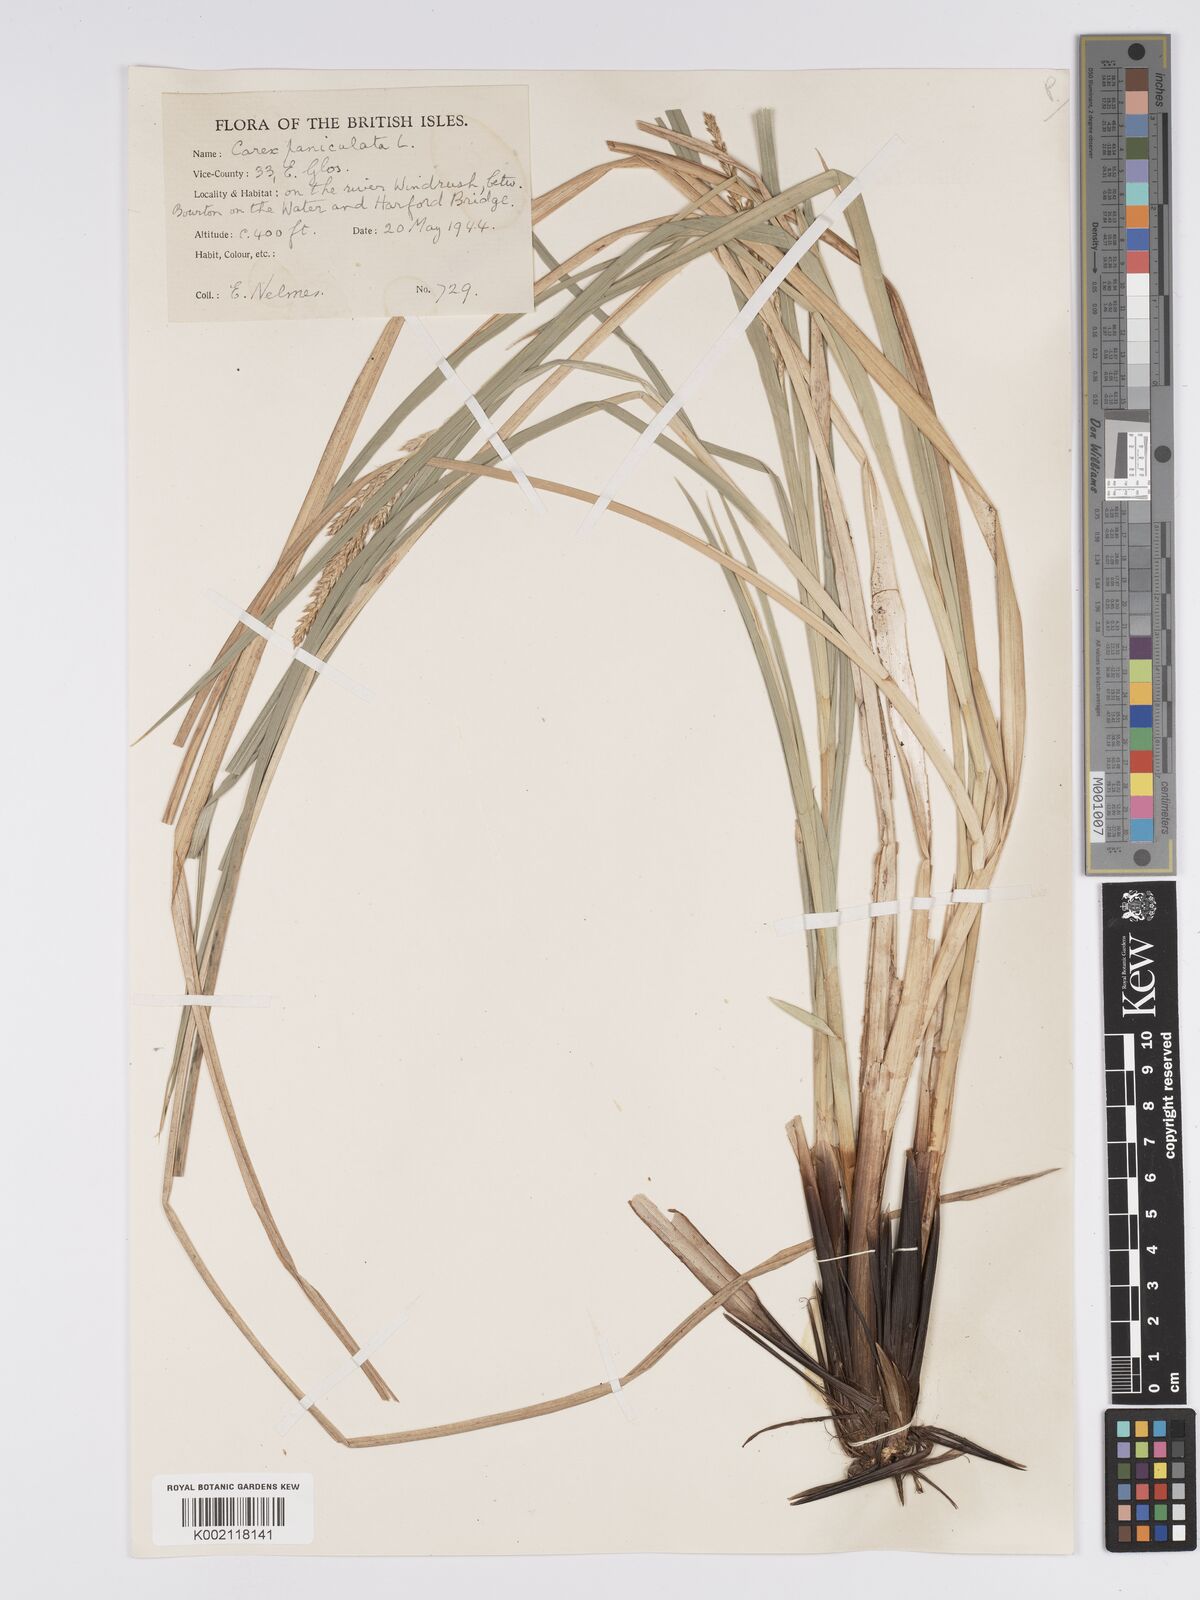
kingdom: Plantae
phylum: Tracheophyta
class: Liliopsida
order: Poales
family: Cyperaceae
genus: Carex
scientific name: Carex paniculata
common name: Greater tussock-sedge
